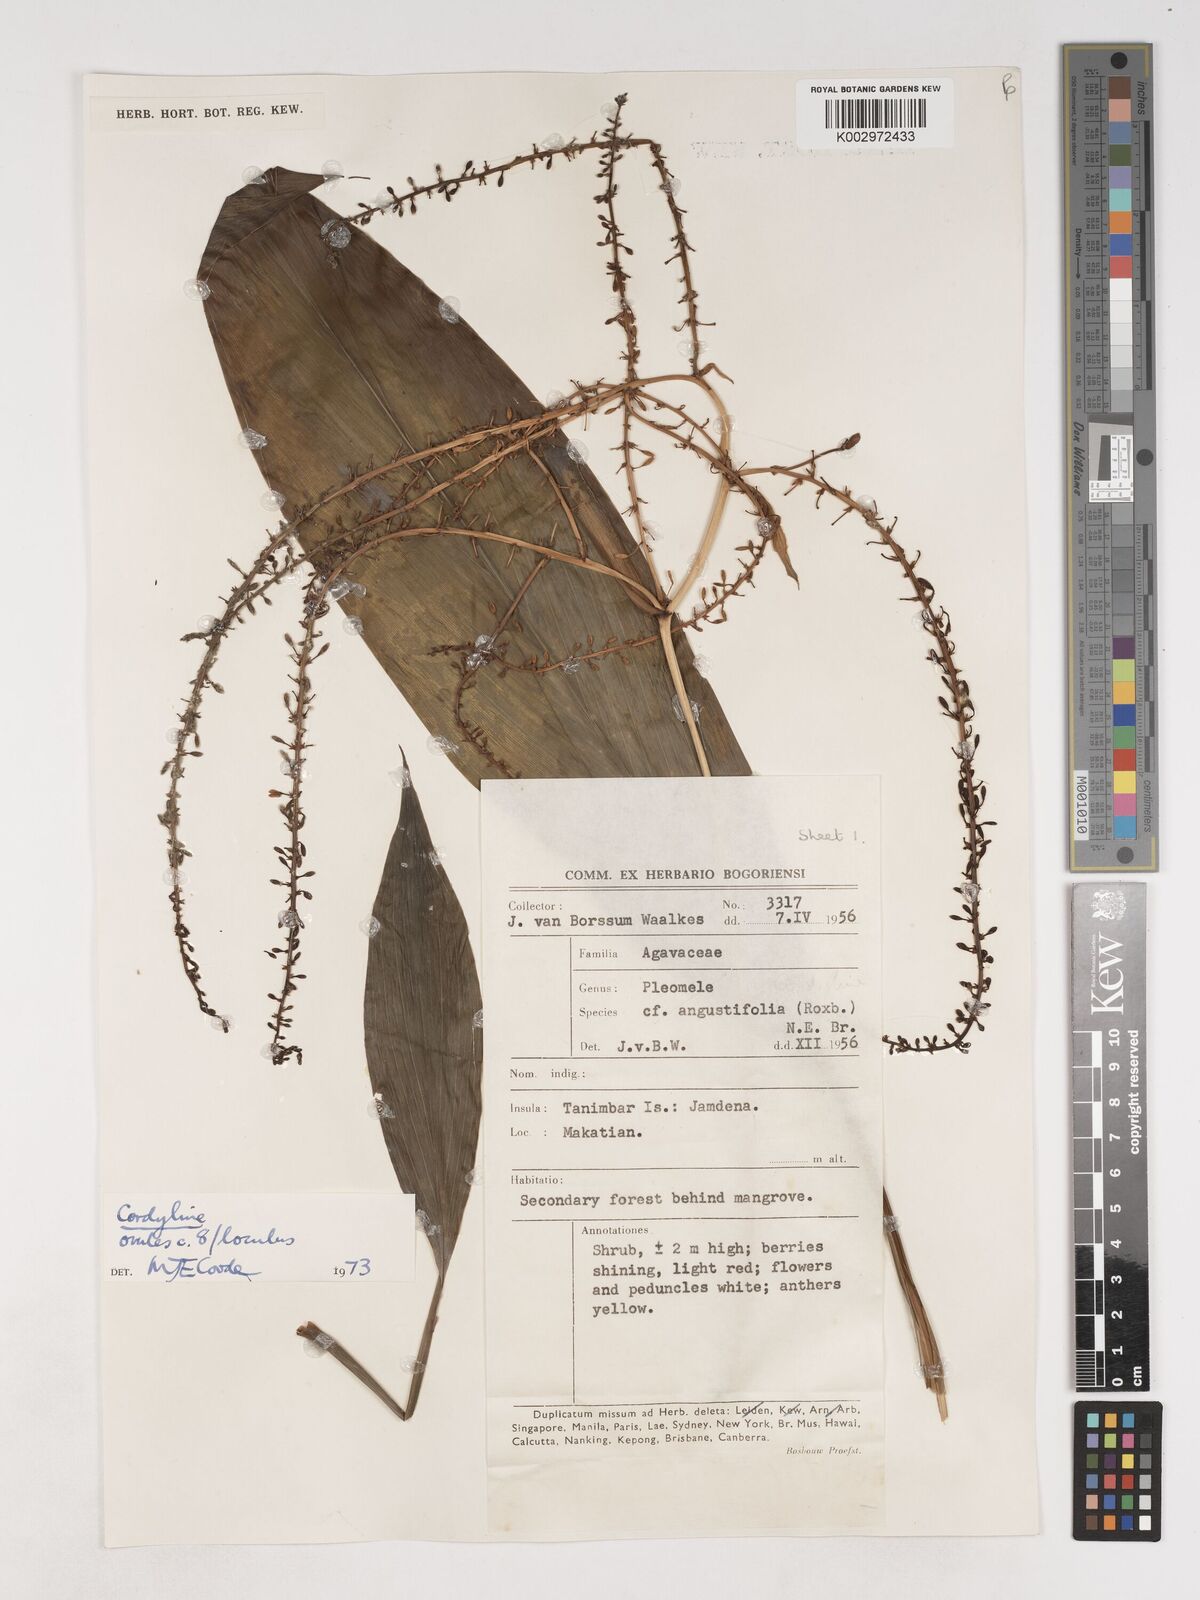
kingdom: Plantae
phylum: Tracheophyta
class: Liliopsida
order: Asparagales
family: Asparagaceae
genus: Cordyline
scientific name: Cordyline
